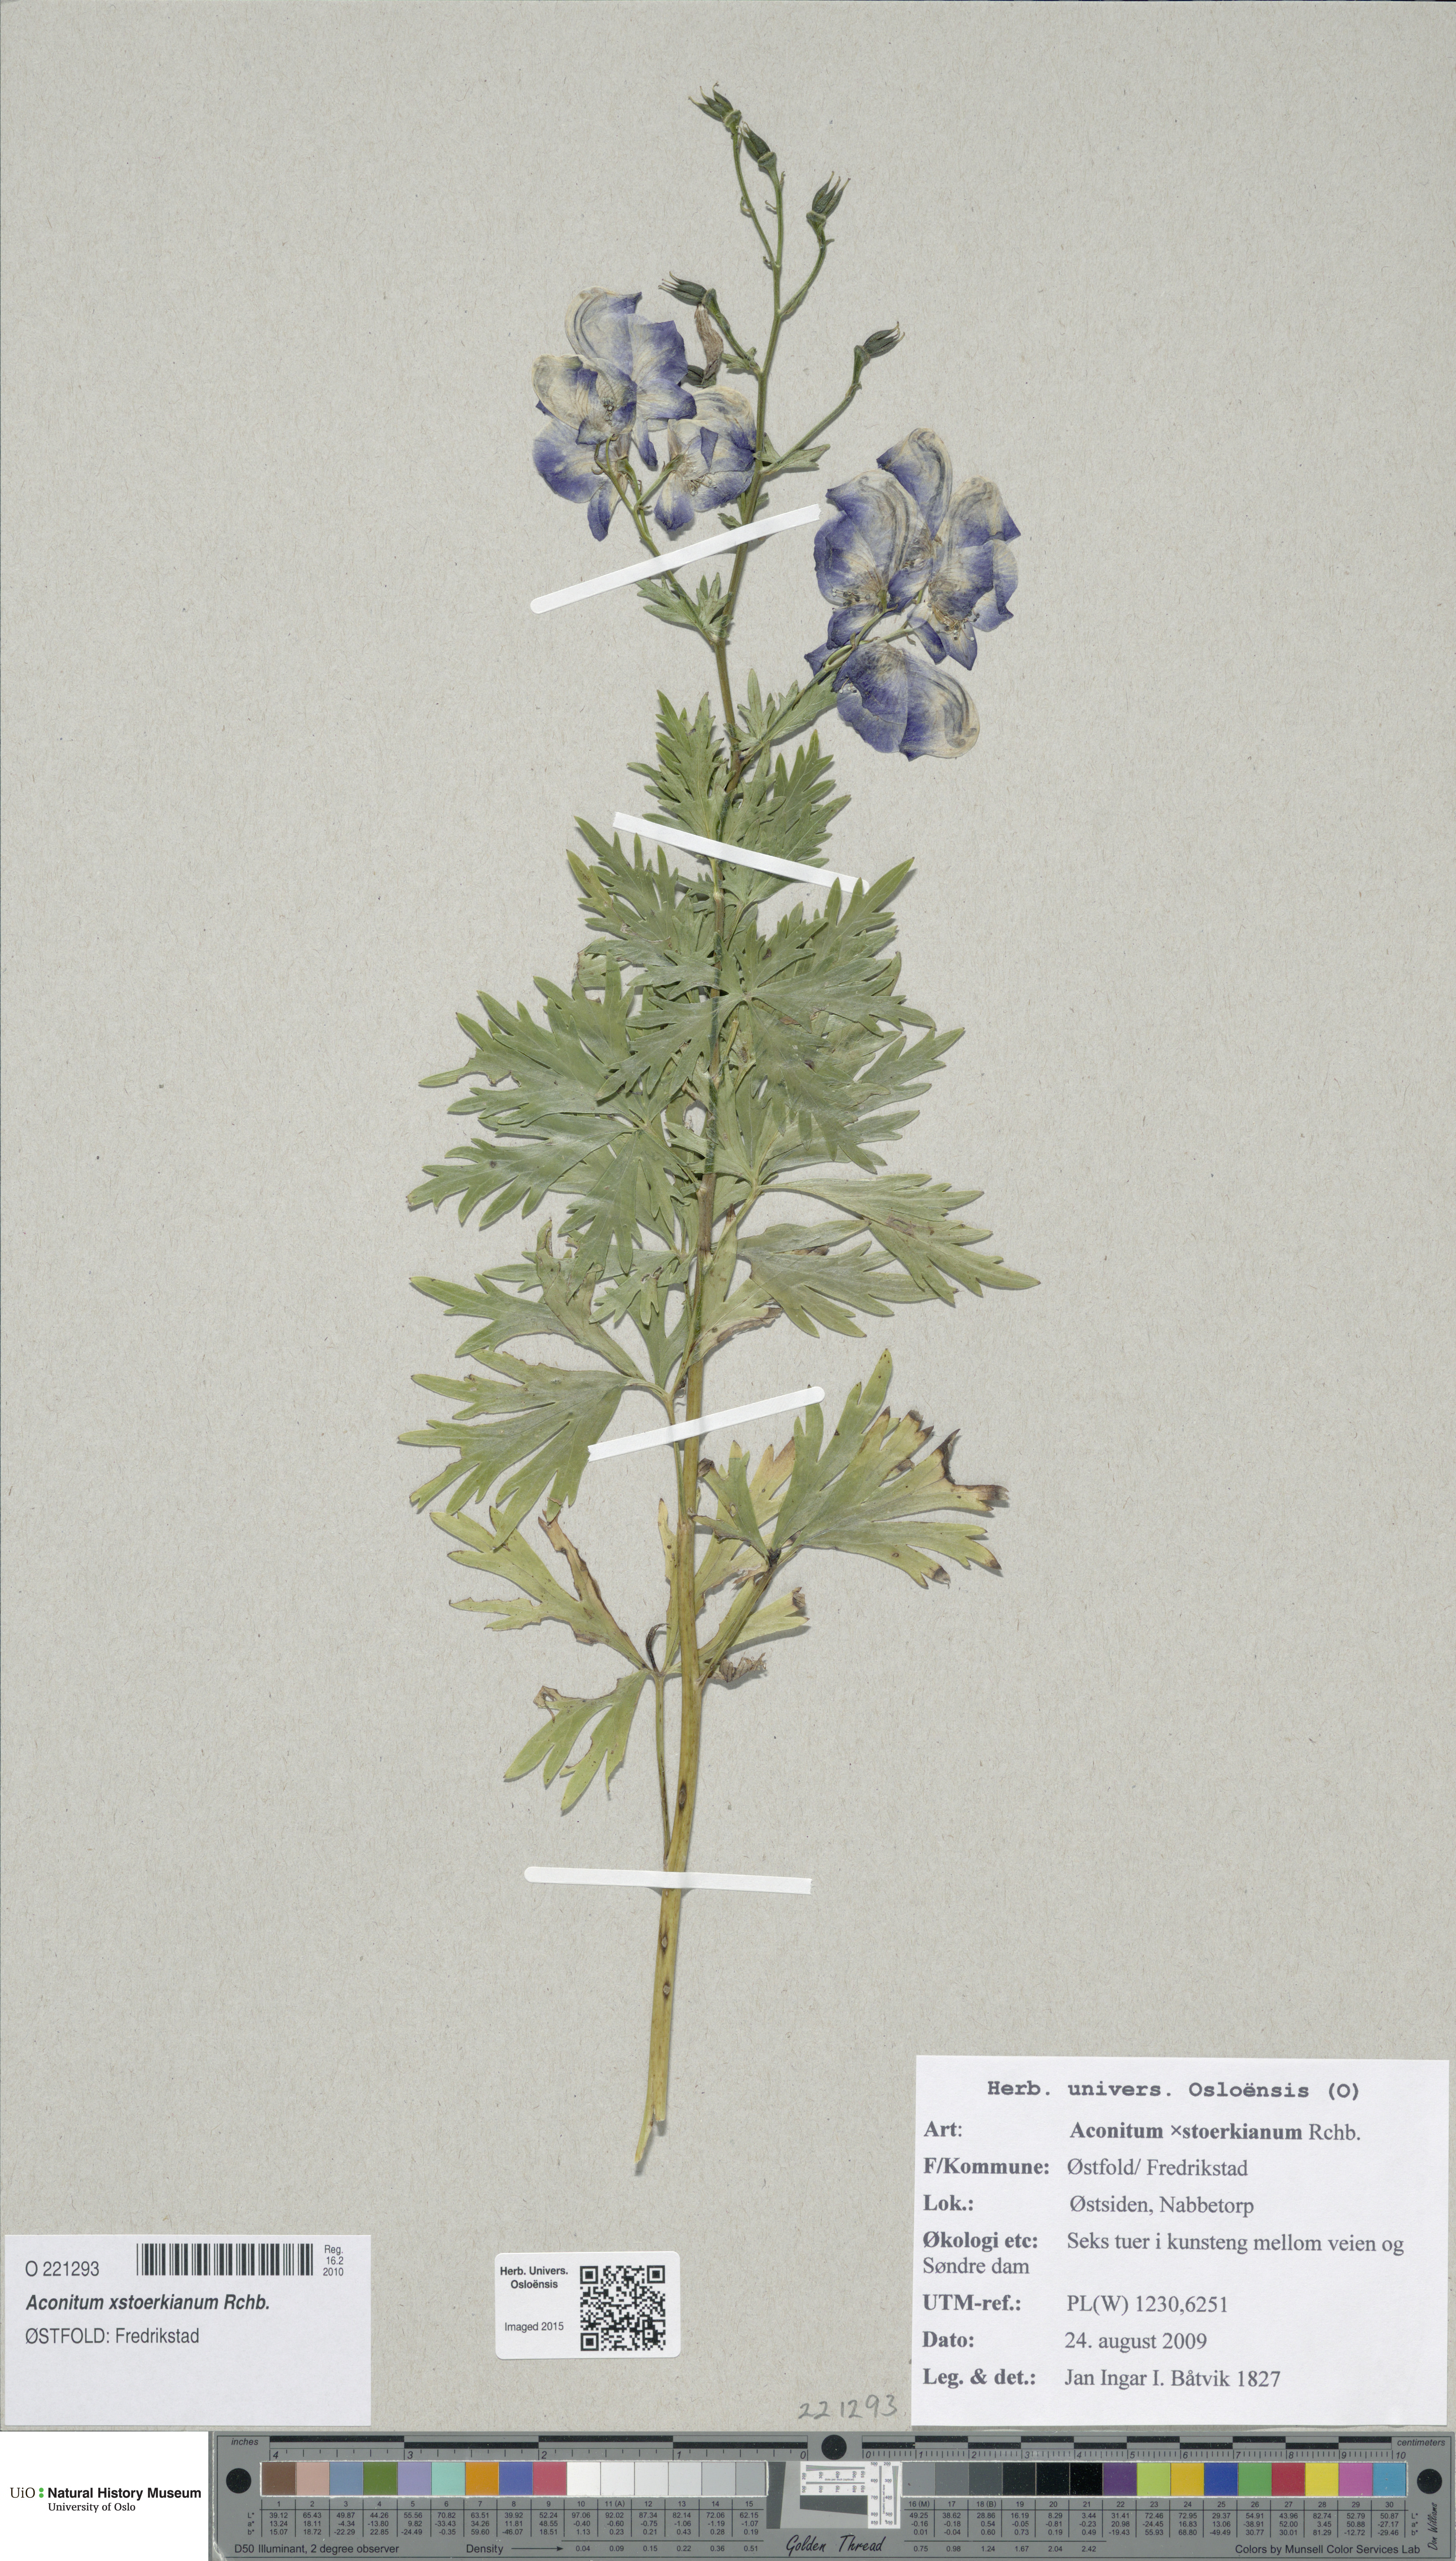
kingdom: Plantae
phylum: Tracheophyta
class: Magnoliopsida
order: Ranunculales
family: Ranunculaceae
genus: Aconitum
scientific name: Aconitum cammarum
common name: Hybrid monk's-hood
